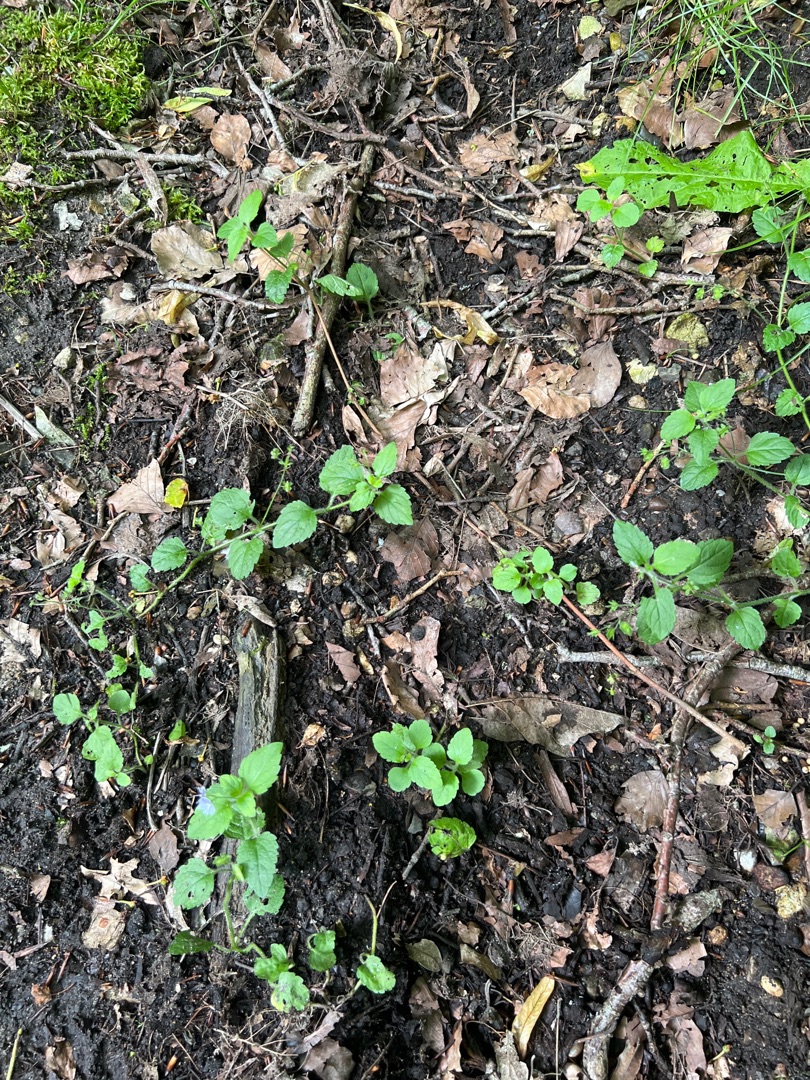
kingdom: Plantae
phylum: Tracheophyta
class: Magnoliopsida
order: Lamiales
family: Plantaginaceae
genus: Veronica
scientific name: Veronica montana
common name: Bjerg-ærenpris
